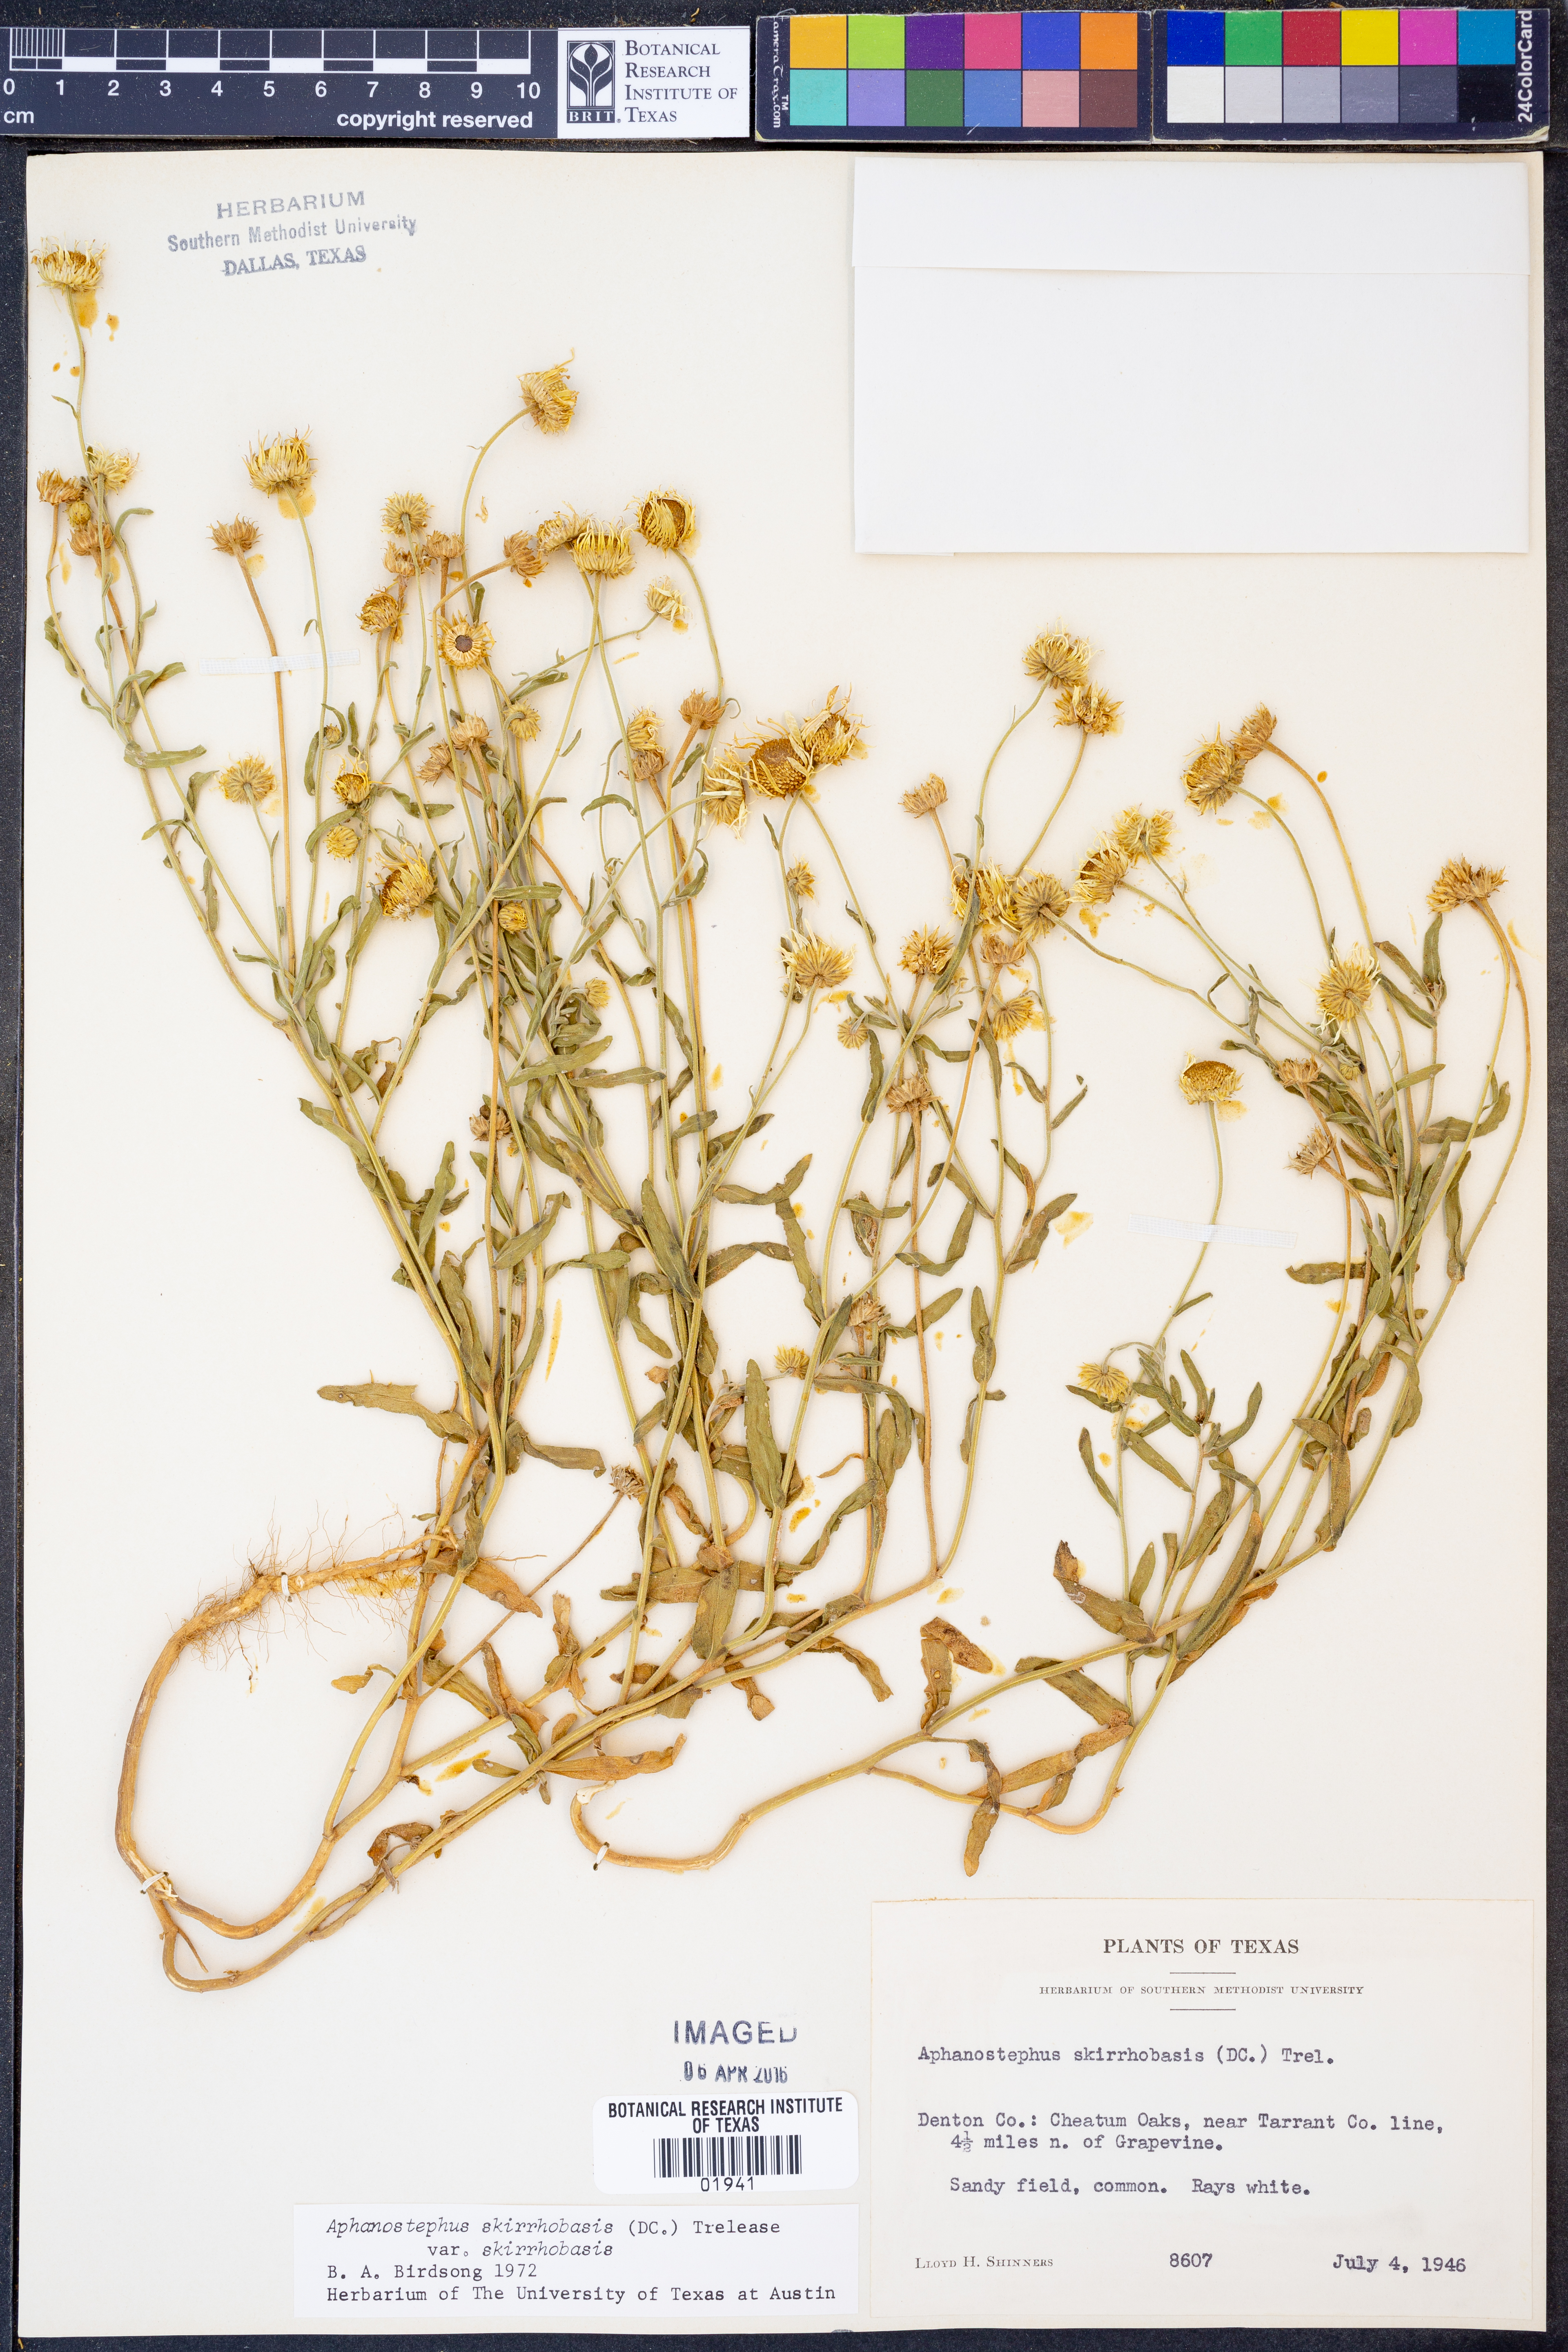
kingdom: Plantae
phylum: Tracheophyta
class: Magnoliopsida
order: Asterales
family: Asteraceae
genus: Aphanostephus
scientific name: Aphanostephus skirrhobasis
